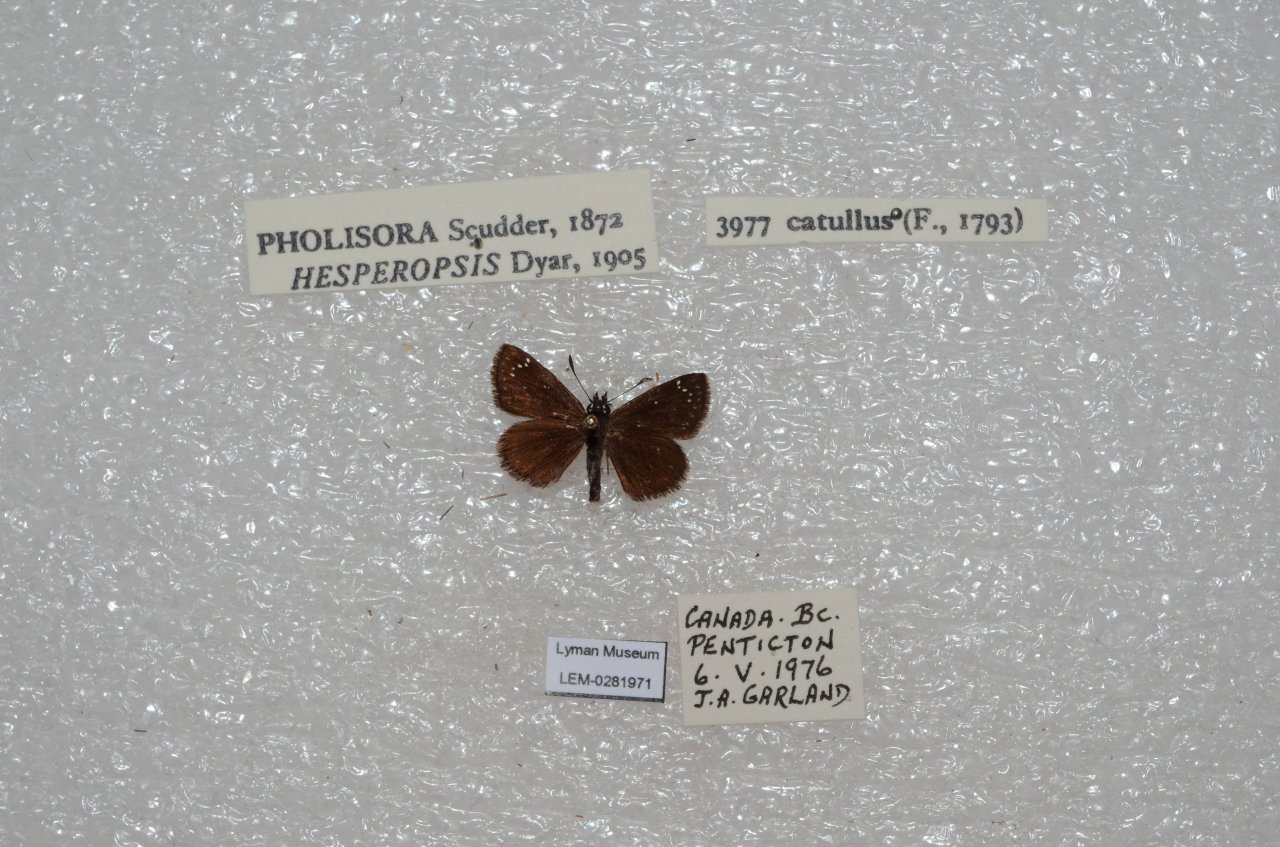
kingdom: Animalia
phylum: Arthropoda
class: Insecta
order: Lepidoptera
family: Hesperiidae
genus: Pholisora
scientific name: Pholisora catullus
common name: Common Sootywing
